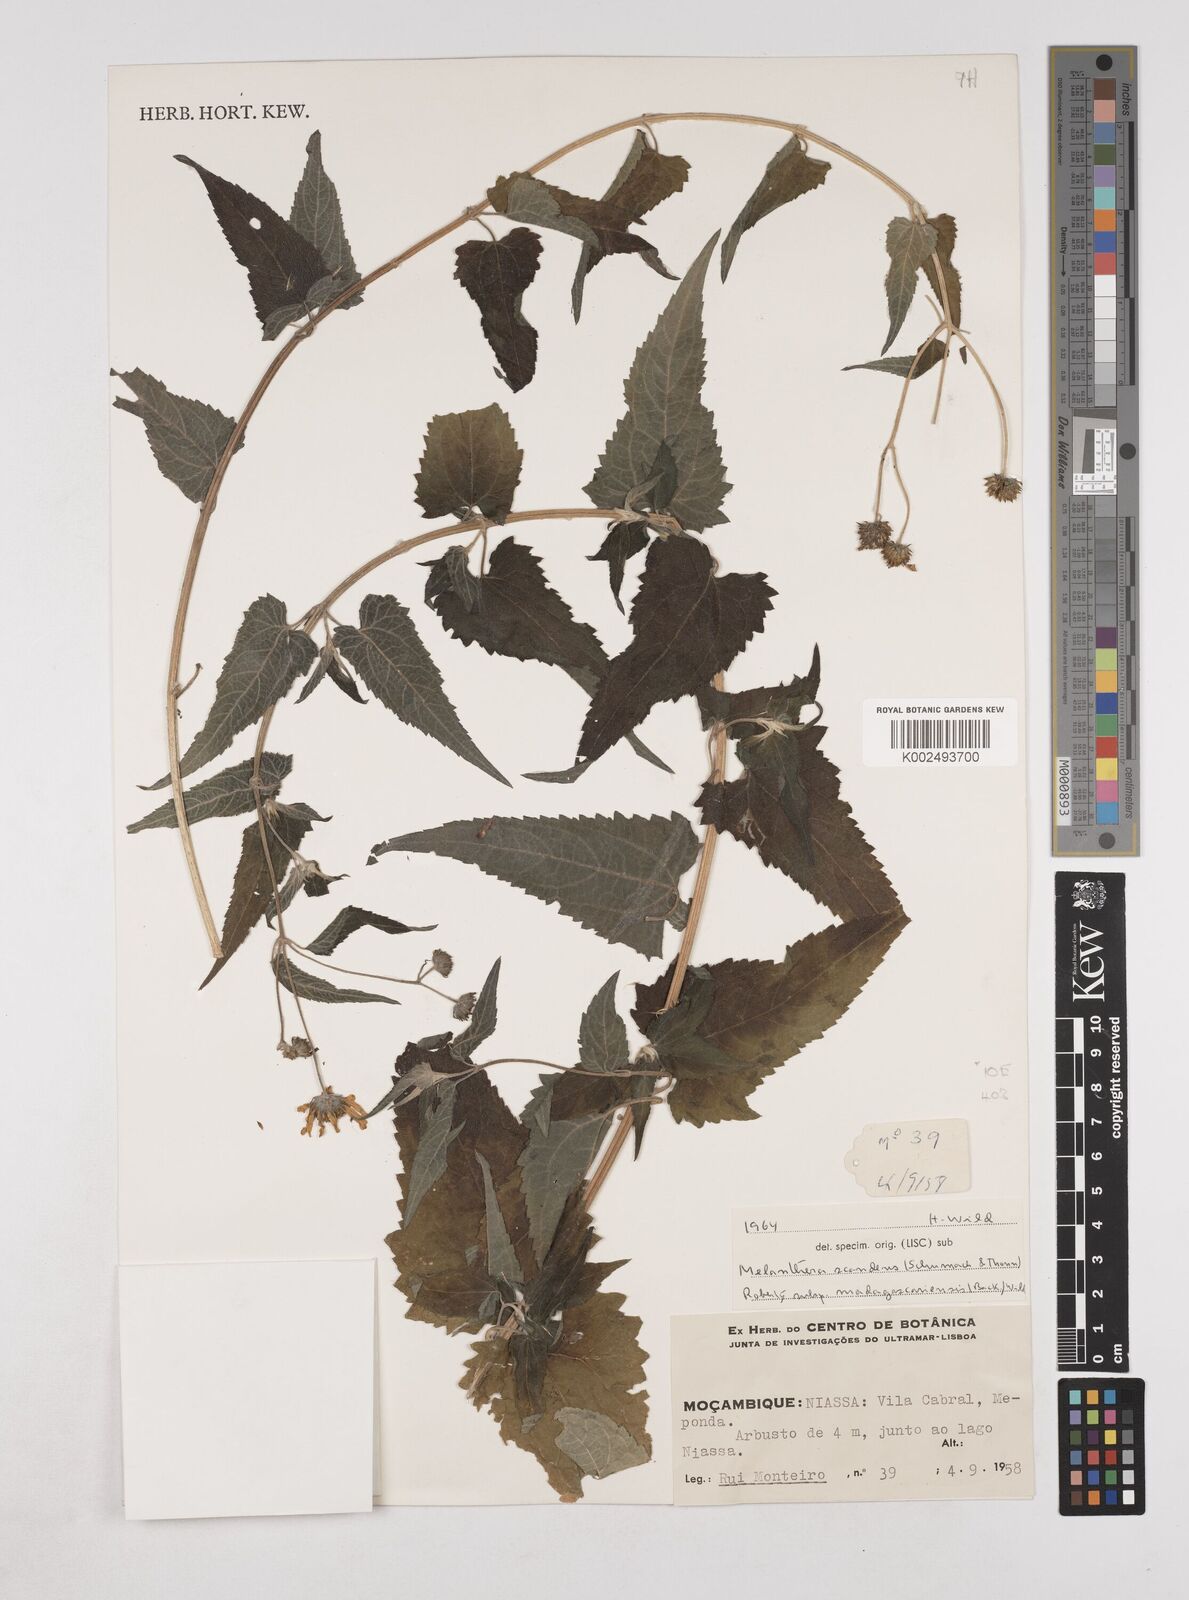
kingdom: Plantae
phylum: Tracheophyta
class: Magnoliopsida
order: Asterales
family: Asteraceae
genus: Lipotriche
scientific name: Lipotriche scandens
